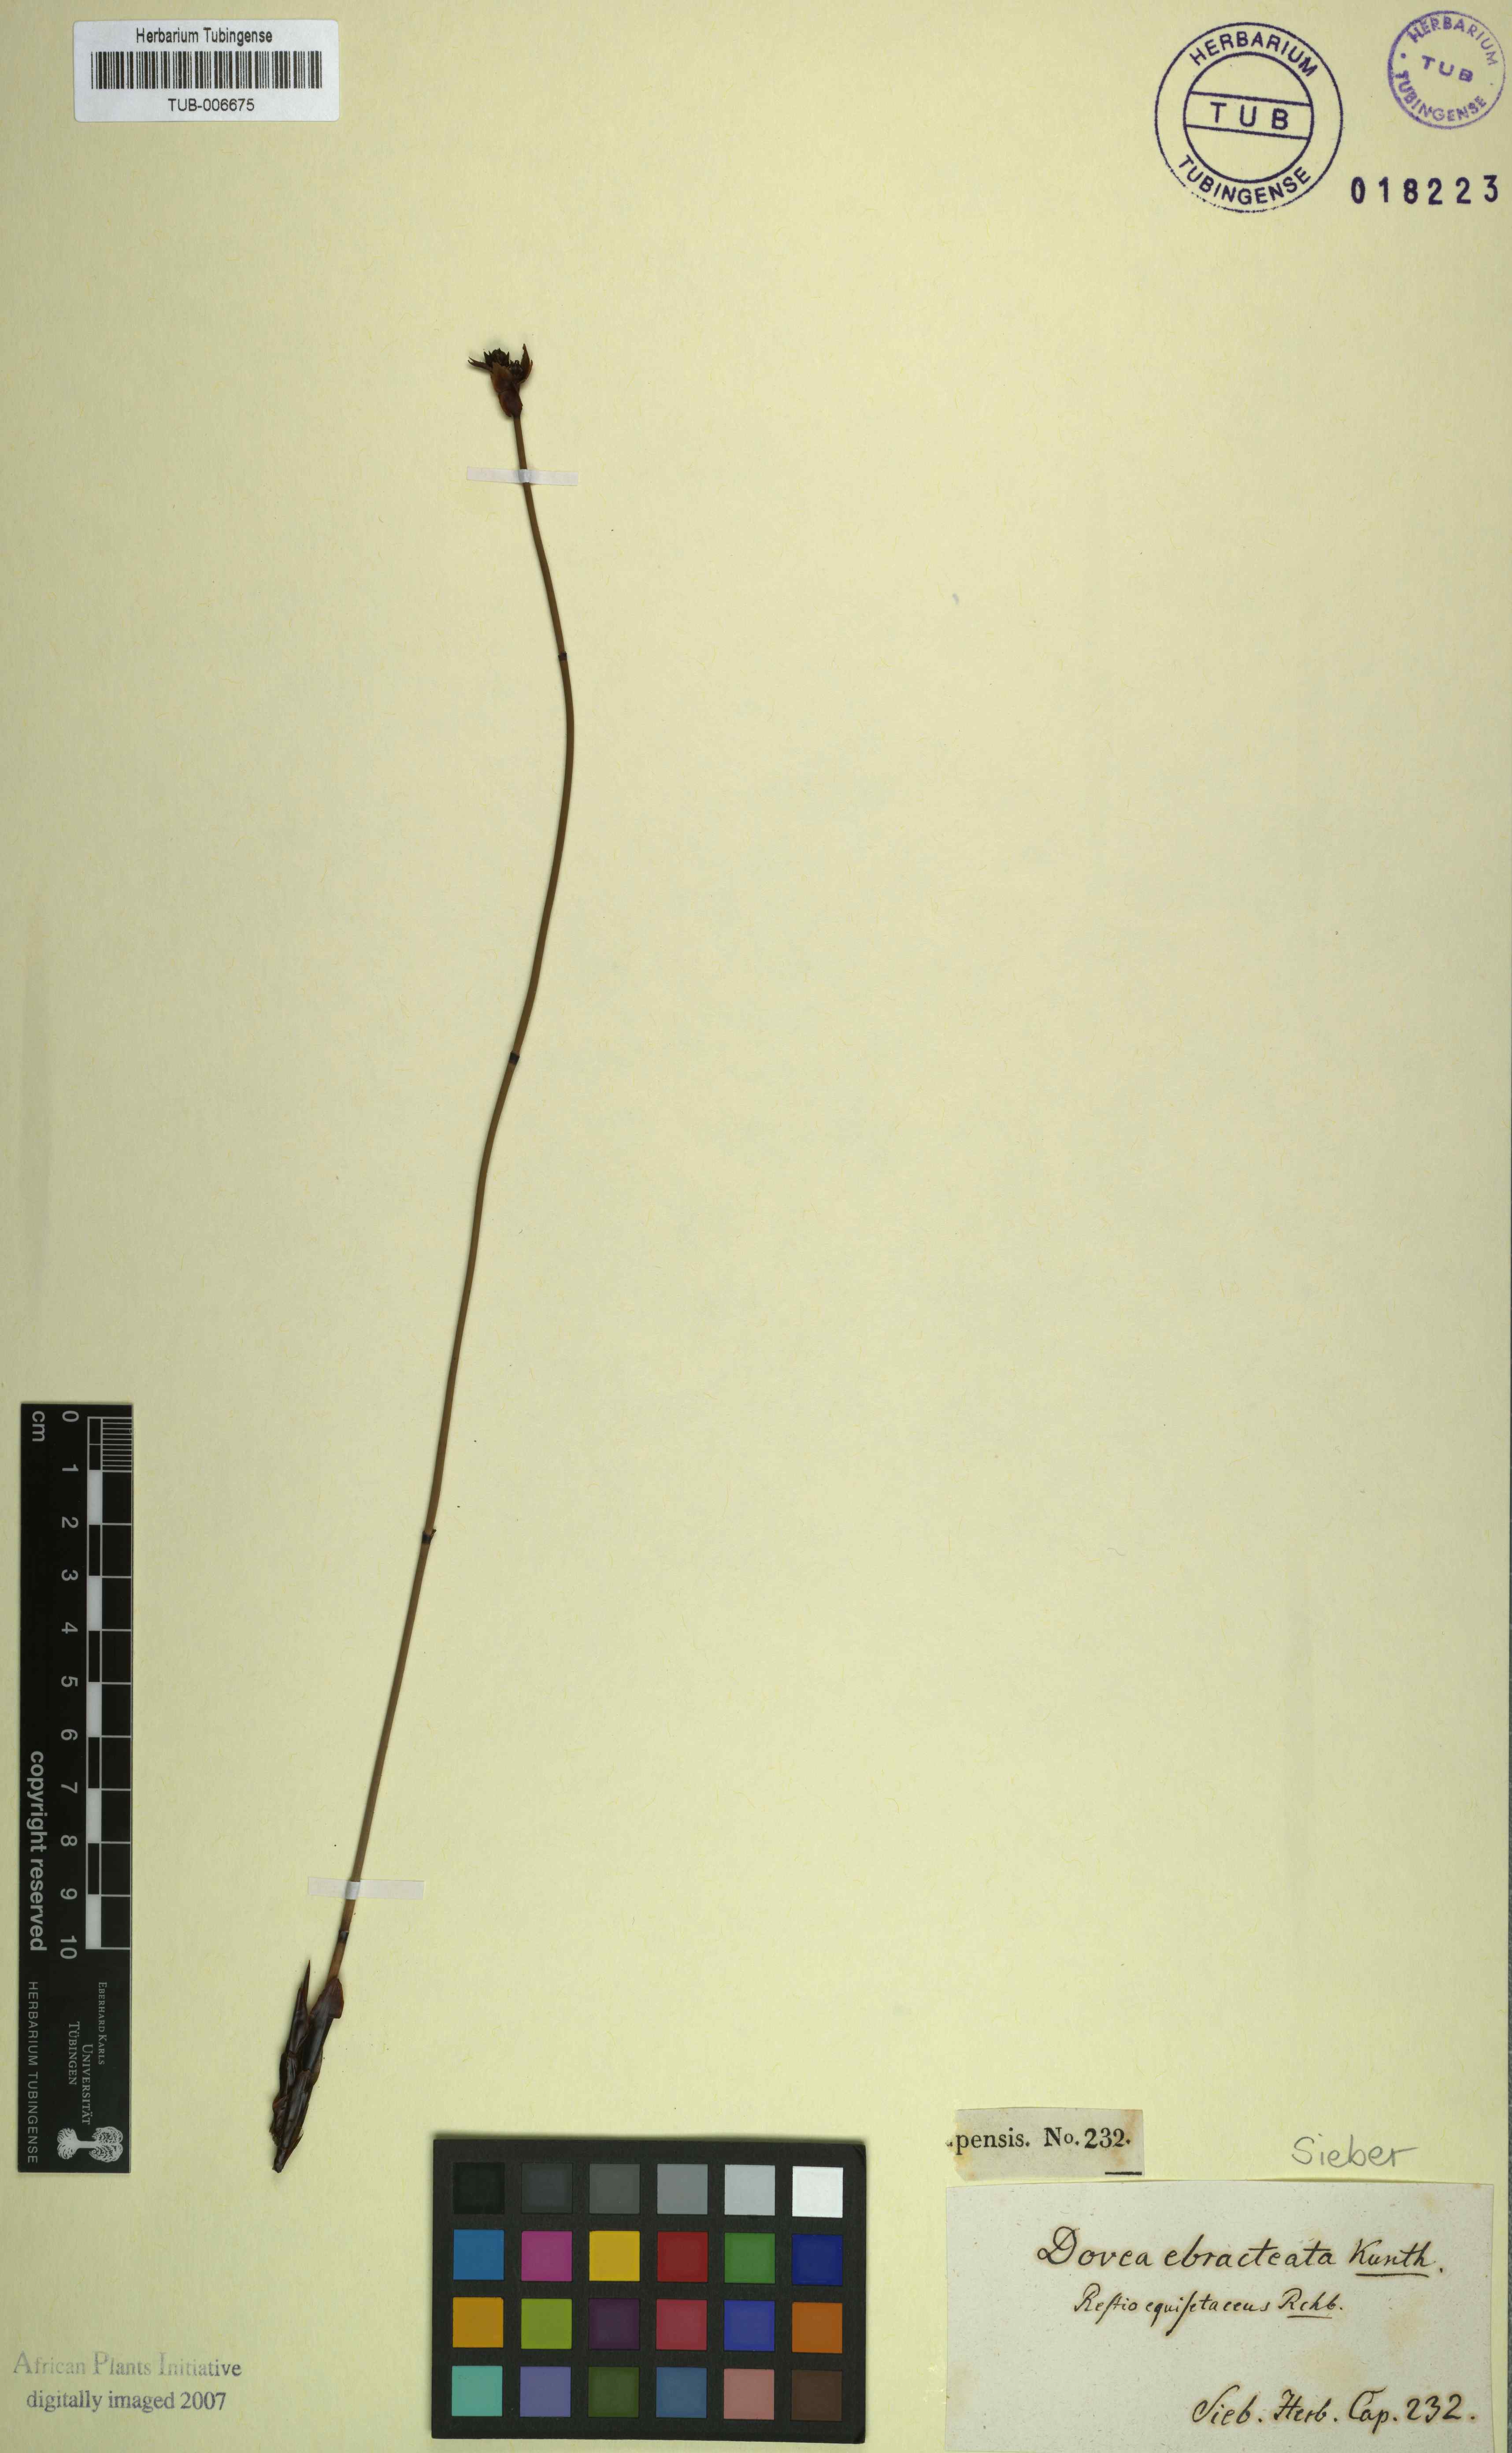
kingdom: Plantae
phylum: Tracheophyta
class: Liliopsida
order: Poales
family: Restionaceae
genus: Elegia
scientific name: Elegia ebracteata
